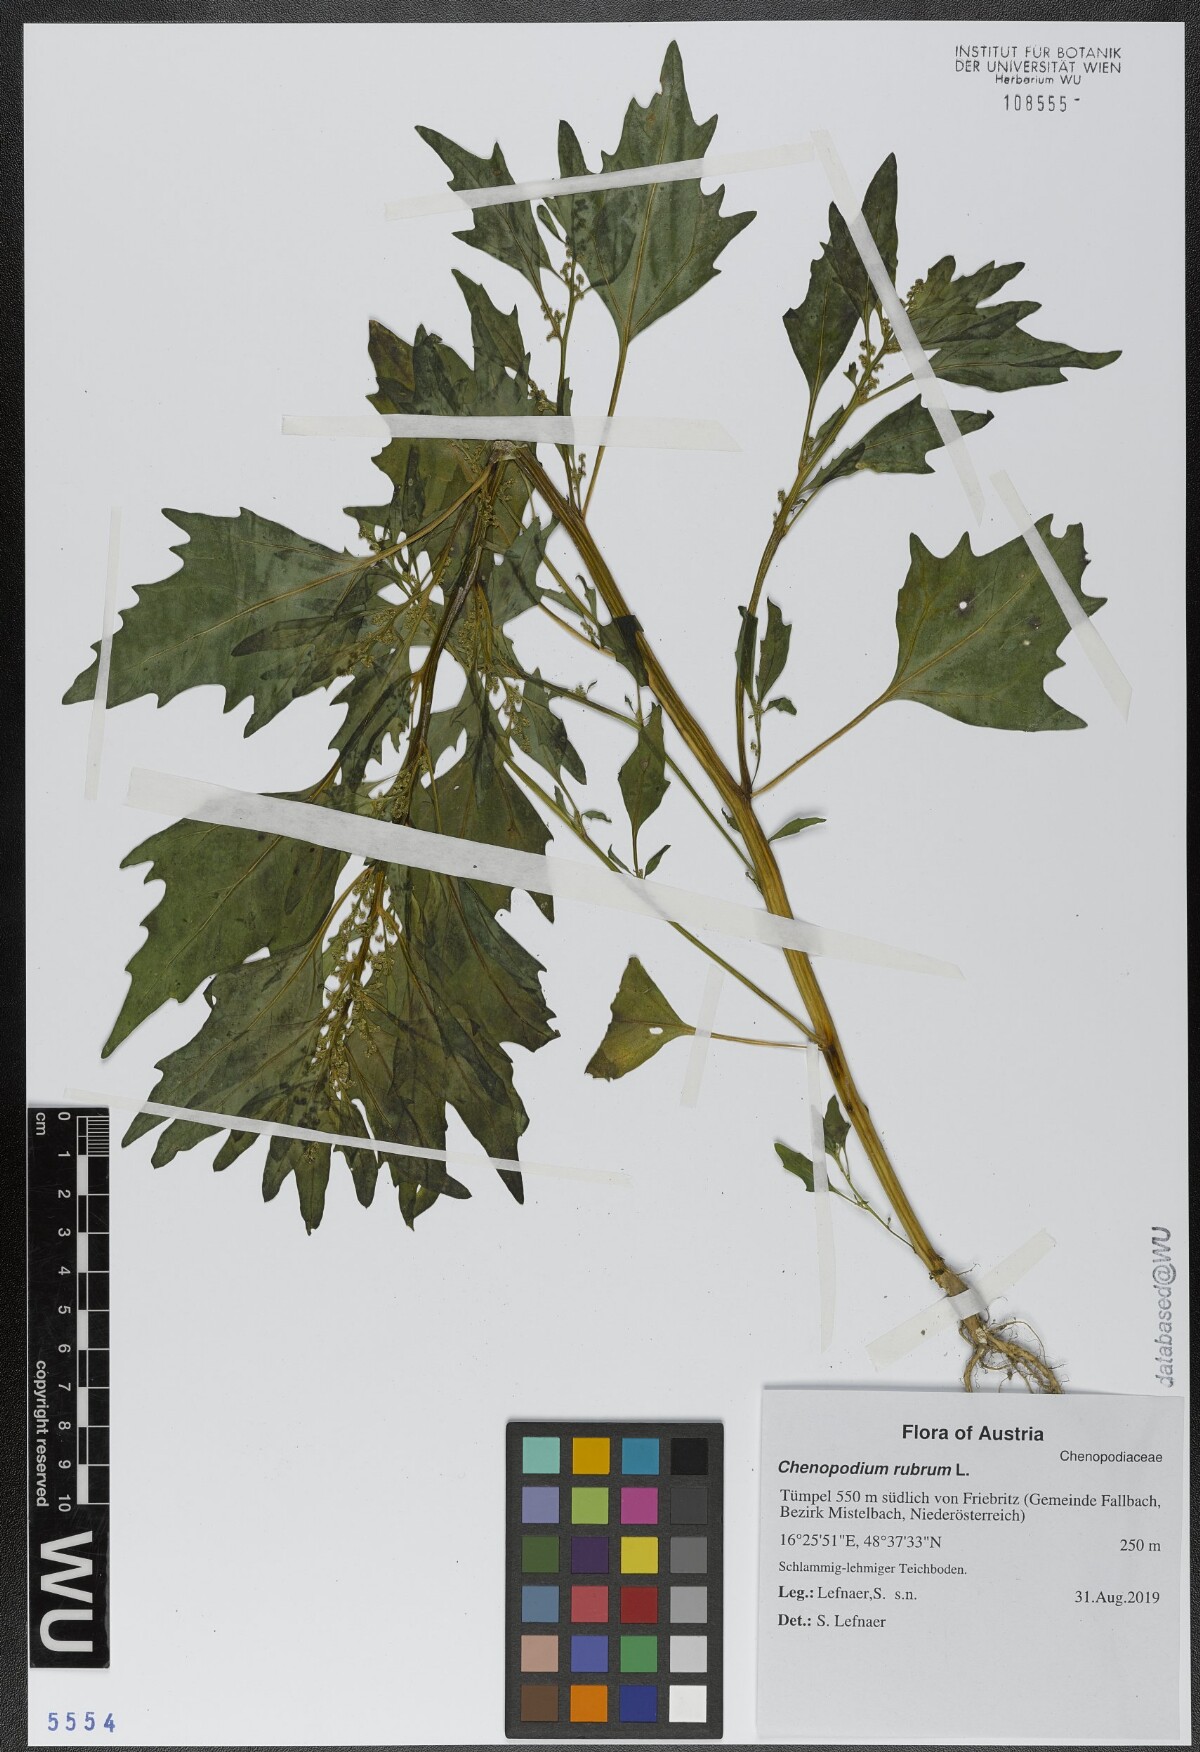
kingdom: Plantae
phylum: Tracheophyta
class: Magnoliopsida
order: Caryophyllales
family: Amaranthaceae
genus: Oxybasis
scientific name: Oxybasis rubra
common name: Red goosefoot
